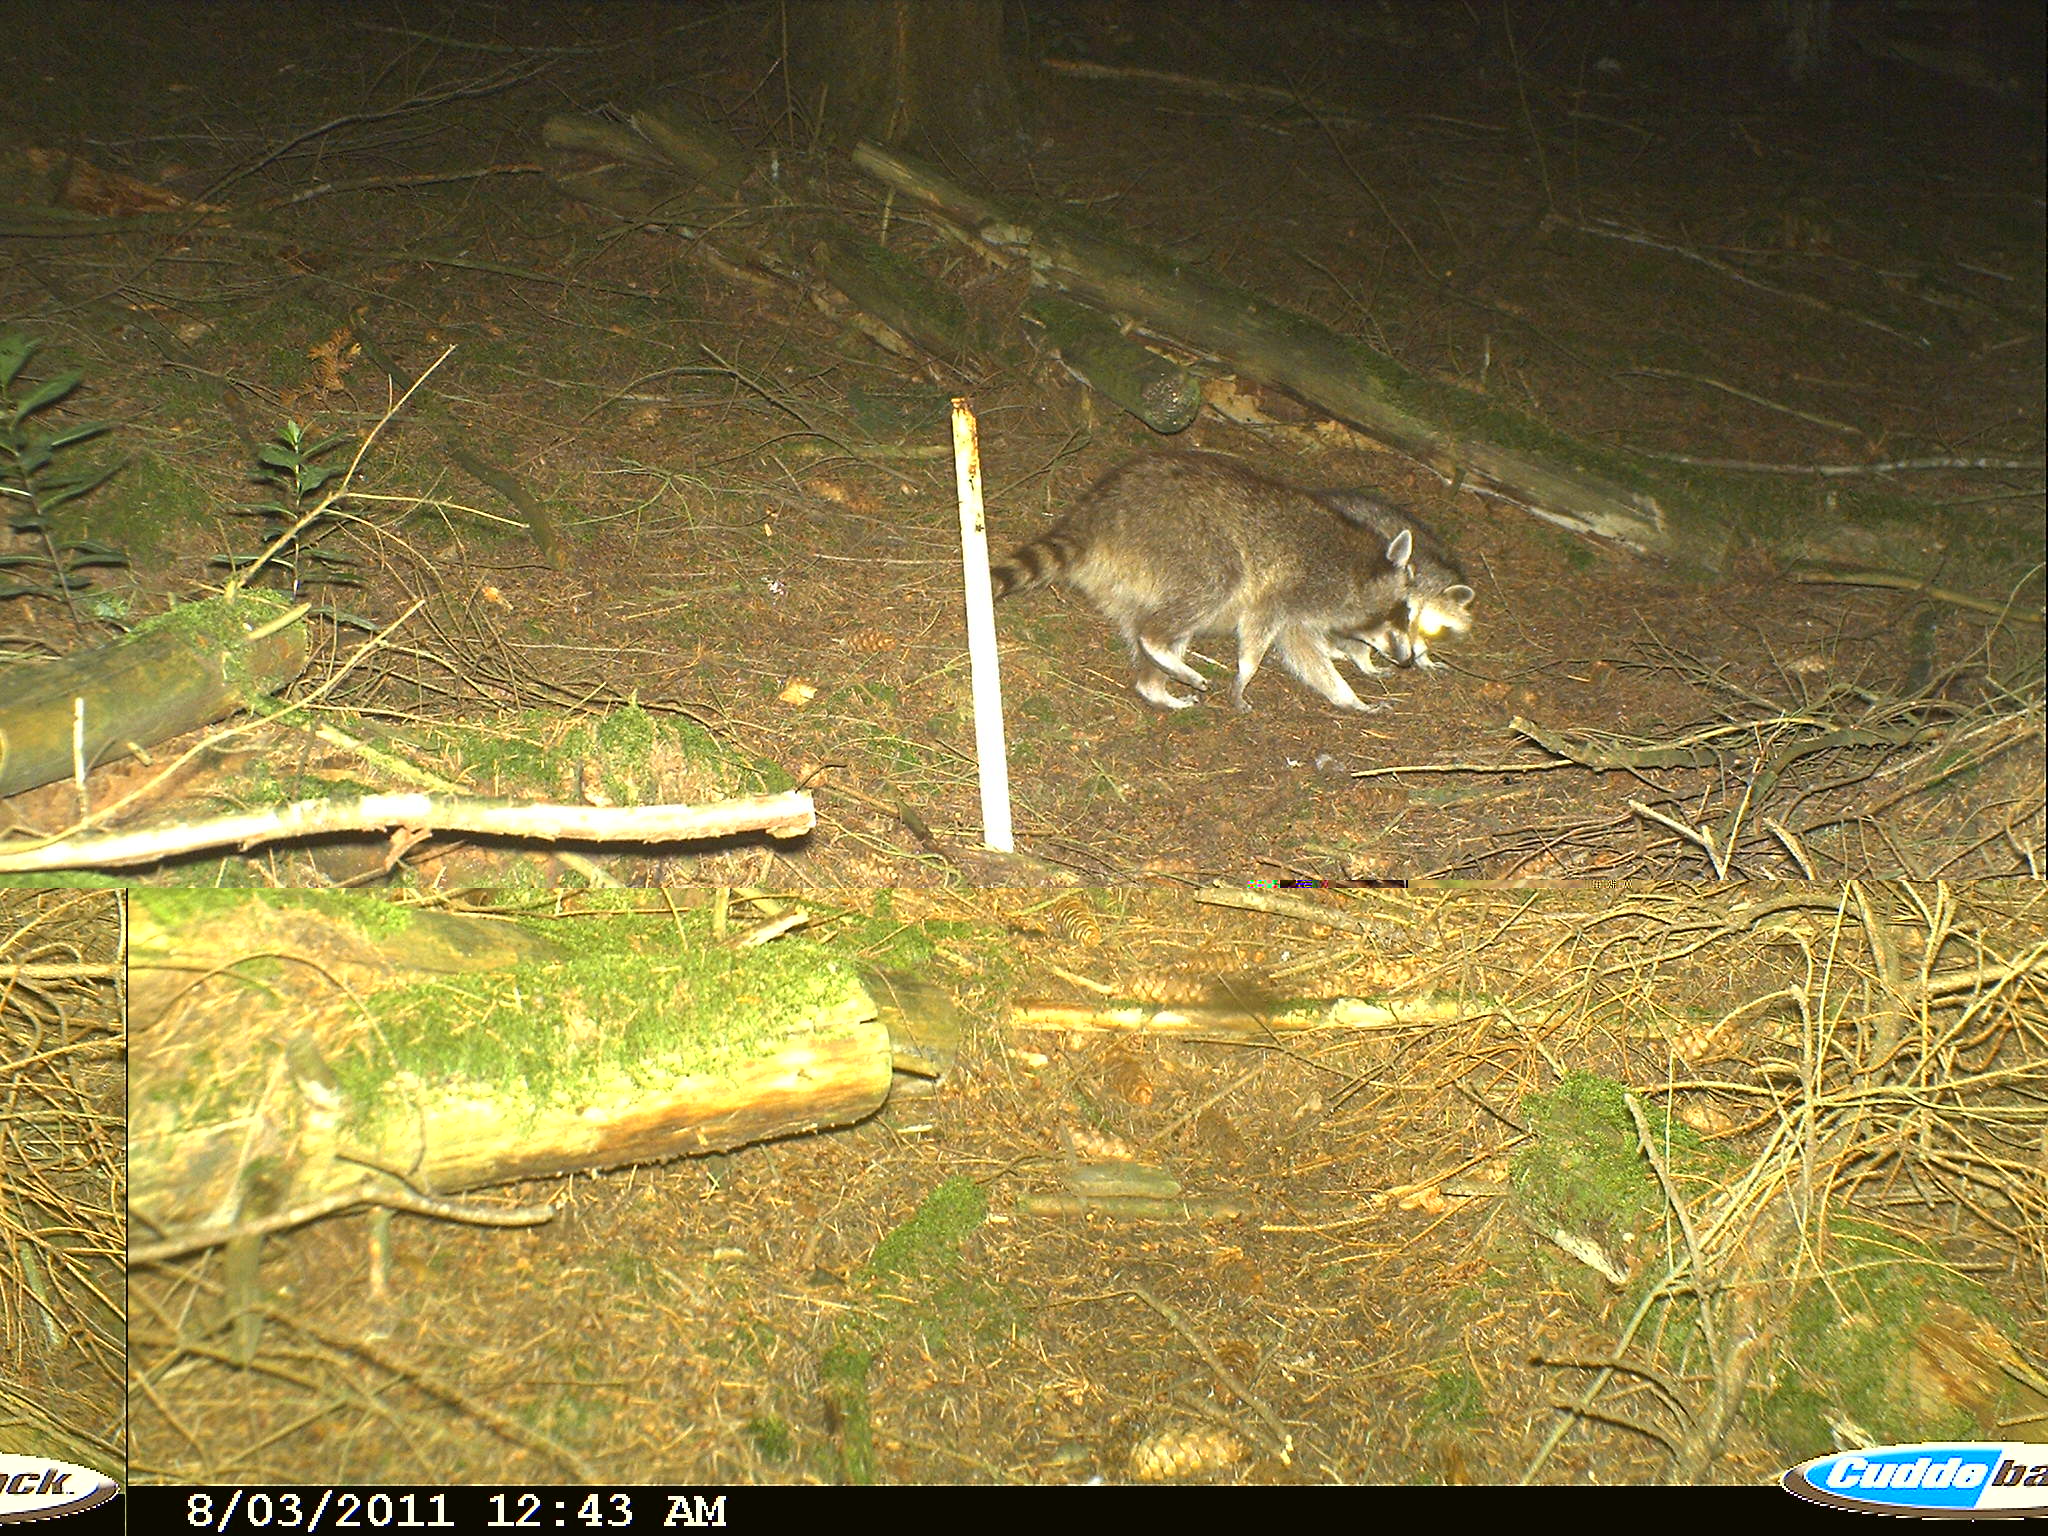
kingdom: Animalia
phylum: Chordata
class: Mammalia
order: Carnivora
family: Procyonidae
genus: Procyon
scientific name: Procyon lotor
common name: Raccoon
